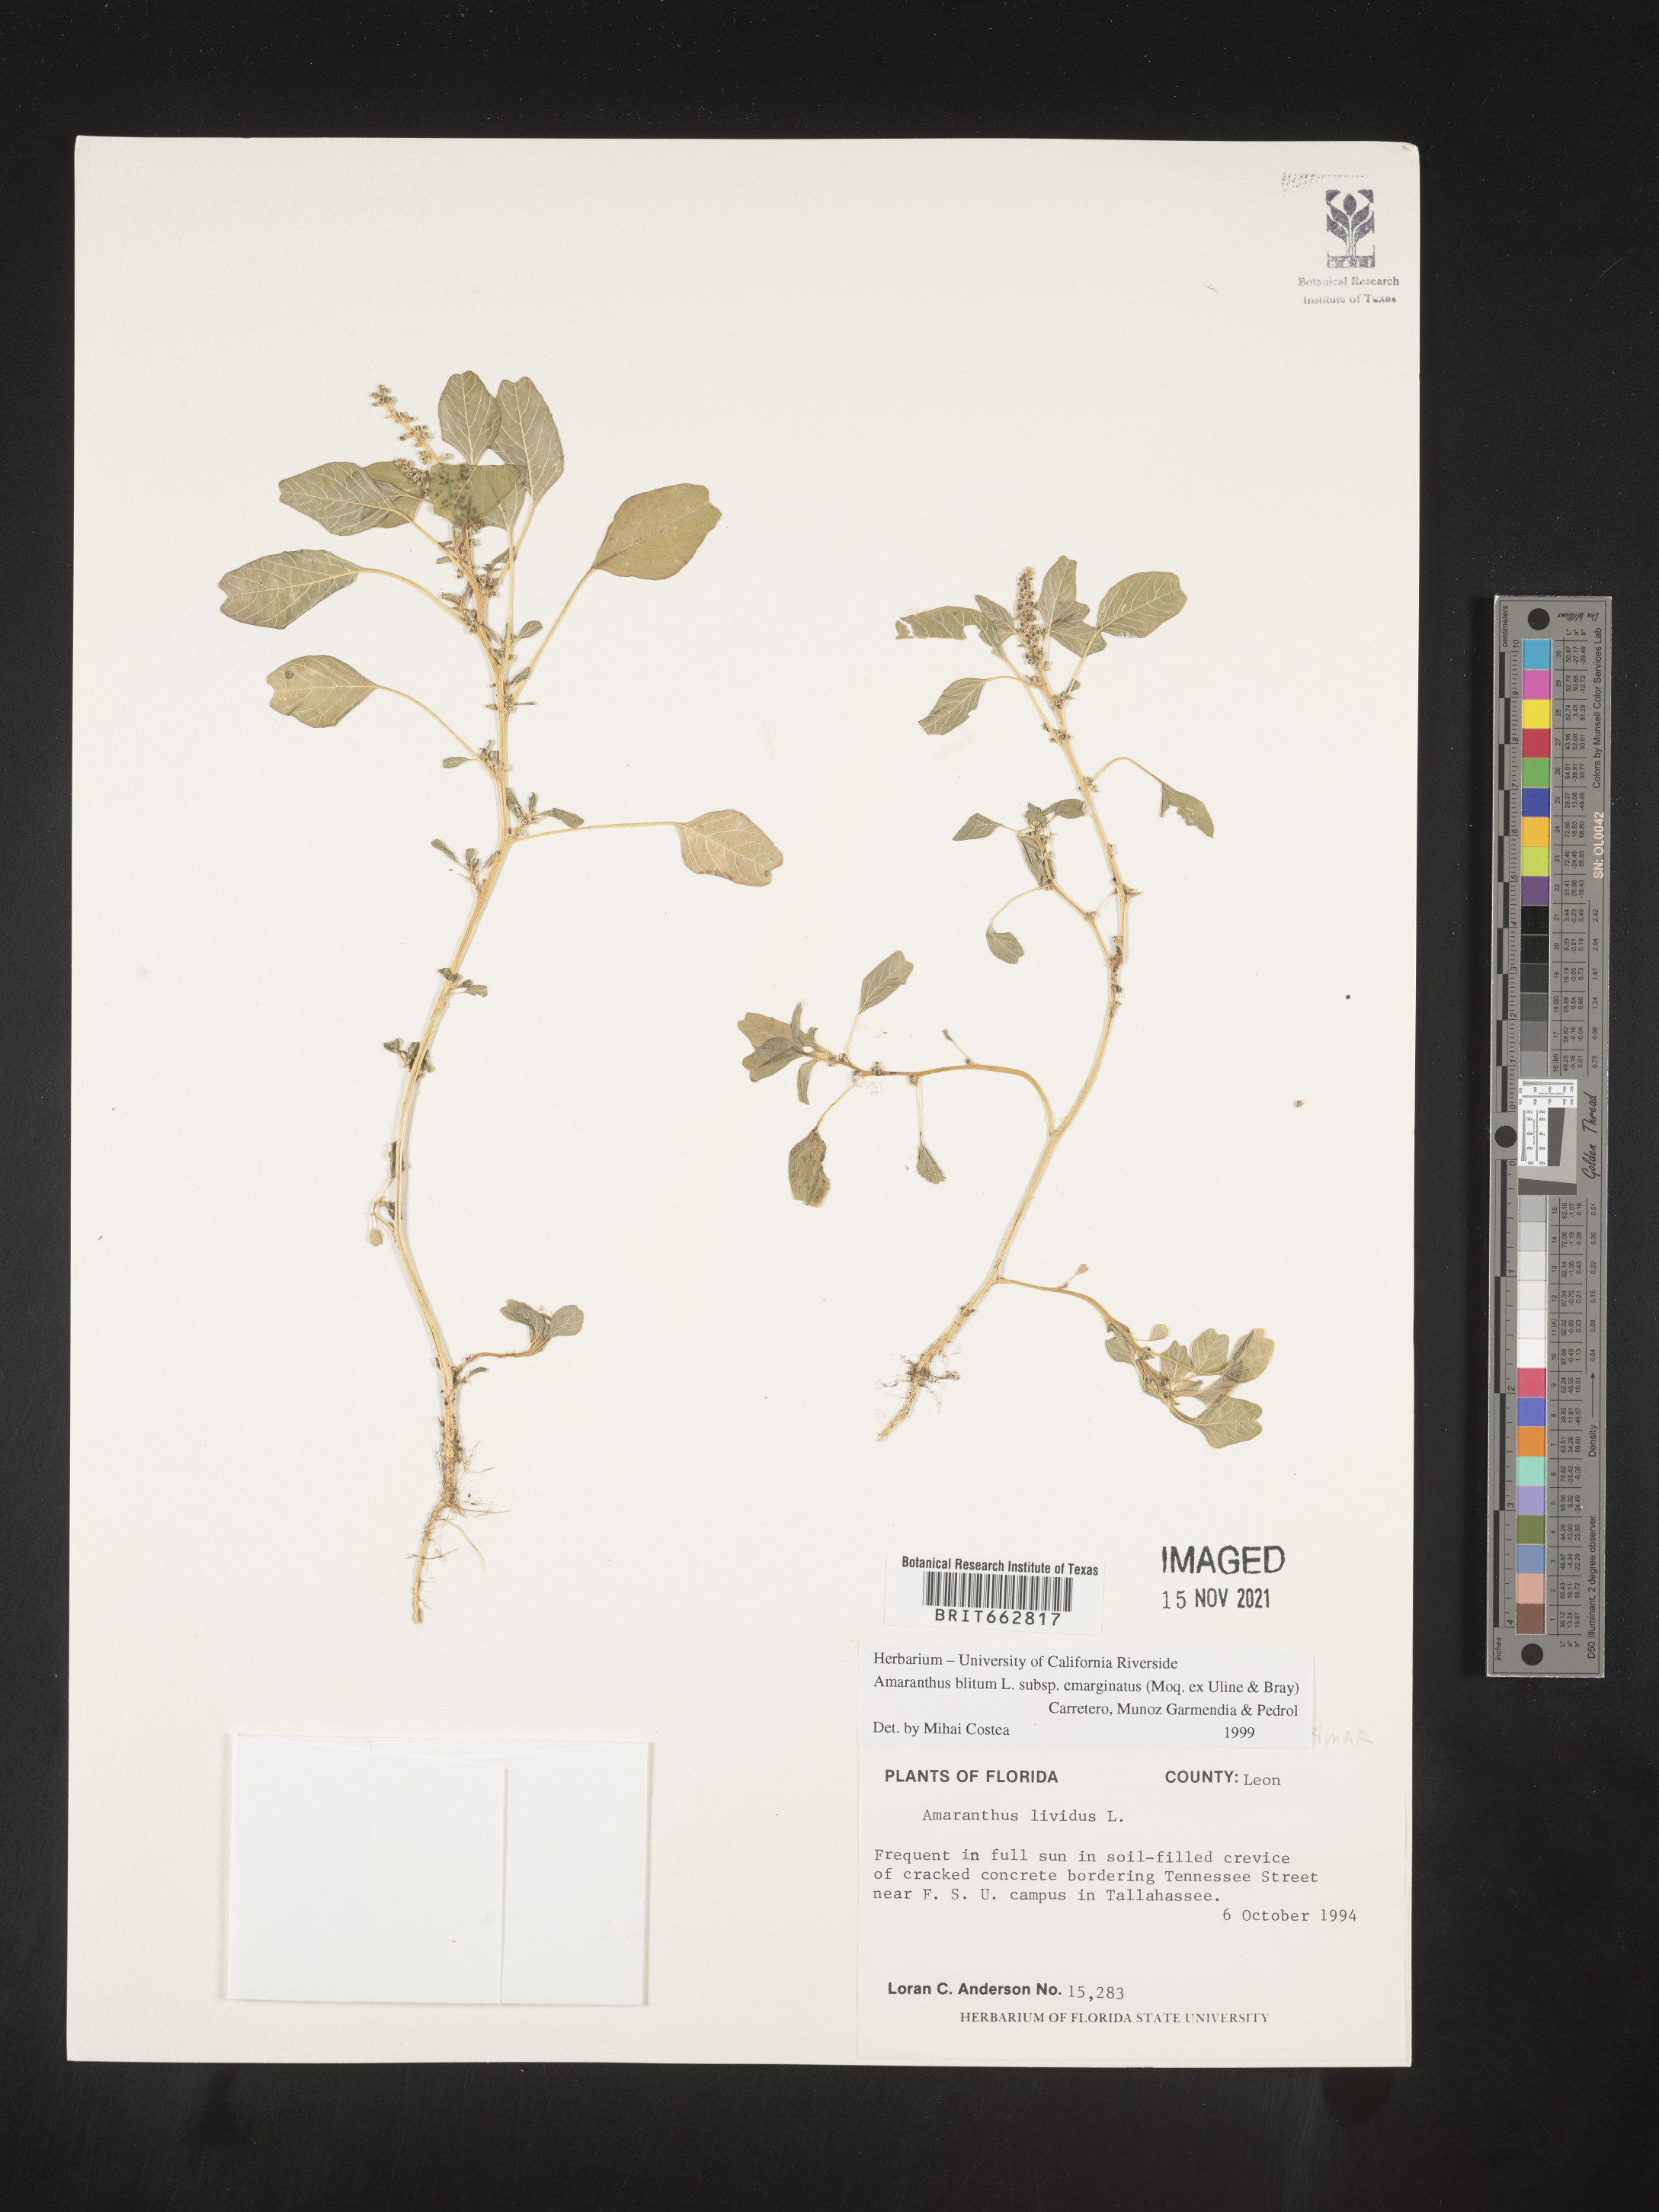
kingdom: Plantae
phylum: Tracheophyta
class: Magnoliopsida
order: Caryophyllales
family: Amaranthaceae
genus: Amaranthus
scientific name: Amaranthus blitum
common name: Purple amaranth
